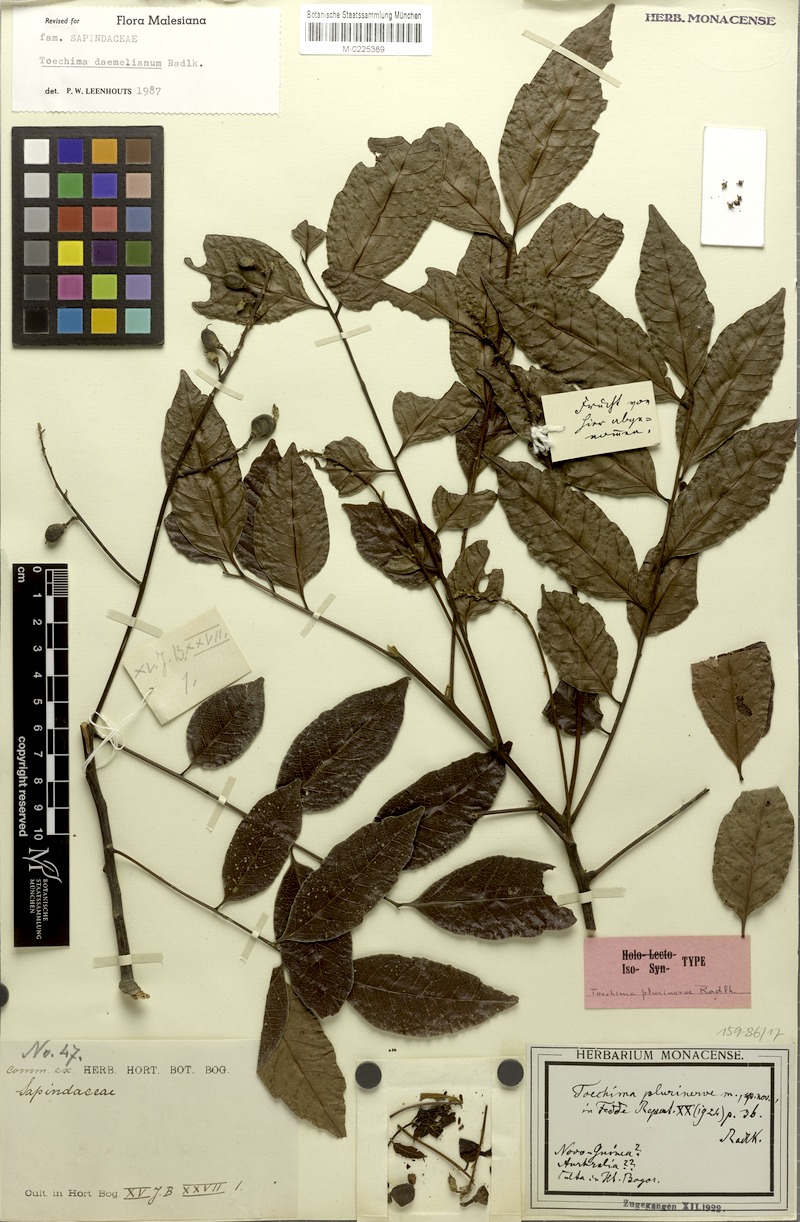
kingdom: Plantae
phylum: Tracheophyta
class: Magnoliopsida
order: Sapindales
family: Sapindaceae
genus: Toechima
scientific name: Toechima daemelianum
